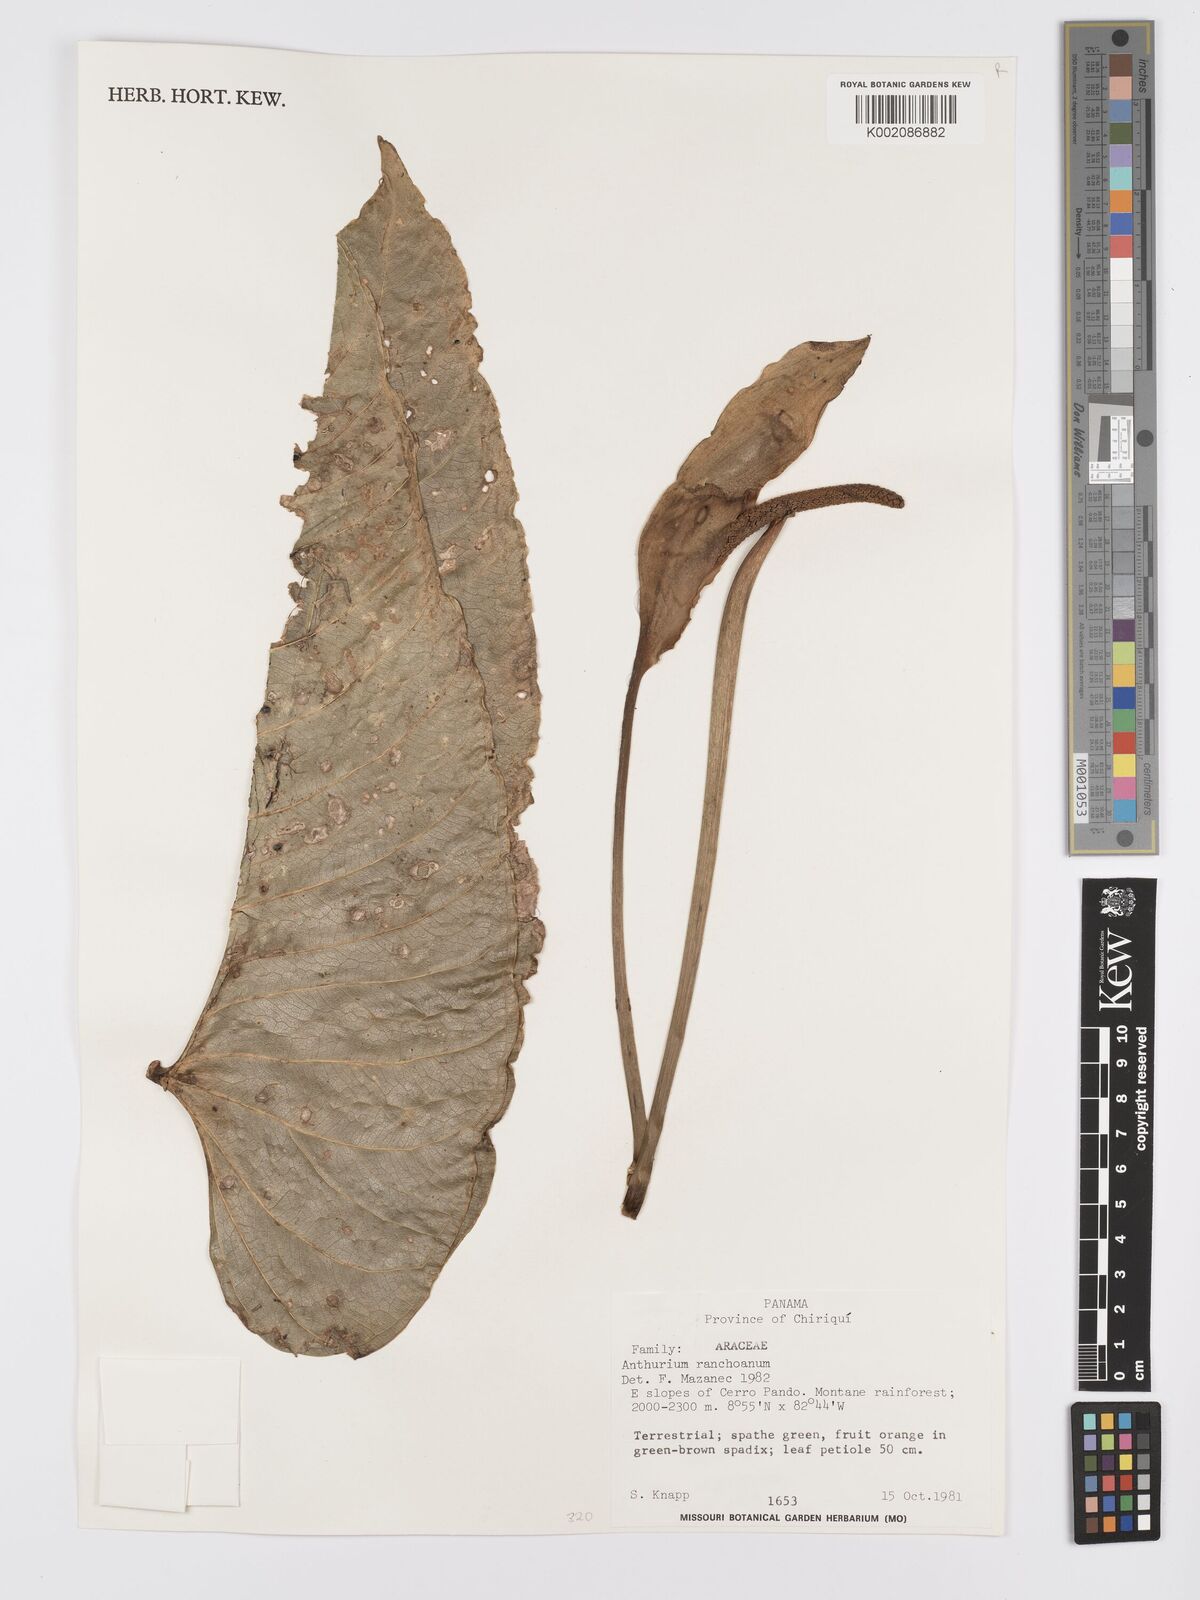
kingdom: Plantae
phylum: Tracheophyta
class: Liliopsida
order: Alismatales
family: Araceae
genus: Anthurium
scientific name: Anthurium ranchoanum
